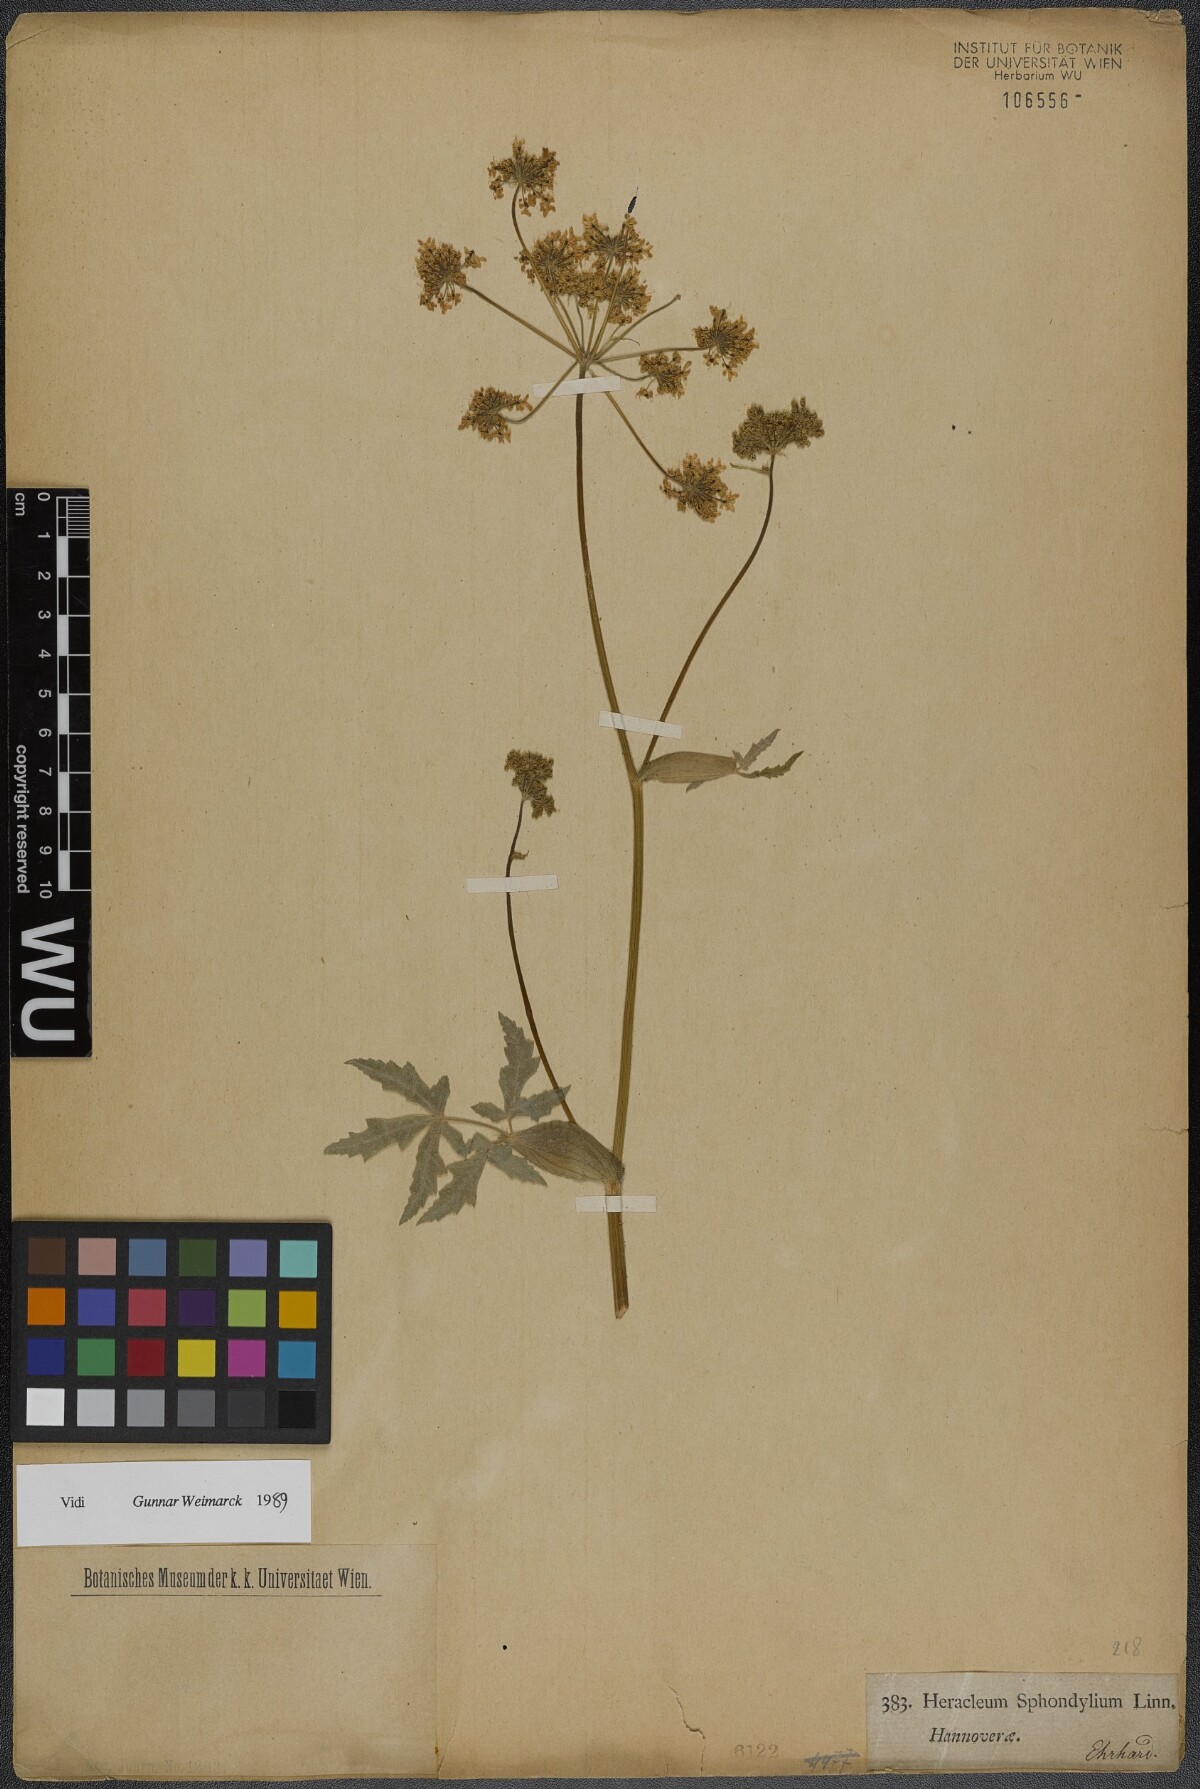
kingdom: Plantae
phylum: Tracheophyta
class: Magnoliopsida
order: Apiales
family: Apiaceae
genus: Heracleum
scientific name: Heracleum sphondylium
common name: Hogweed
